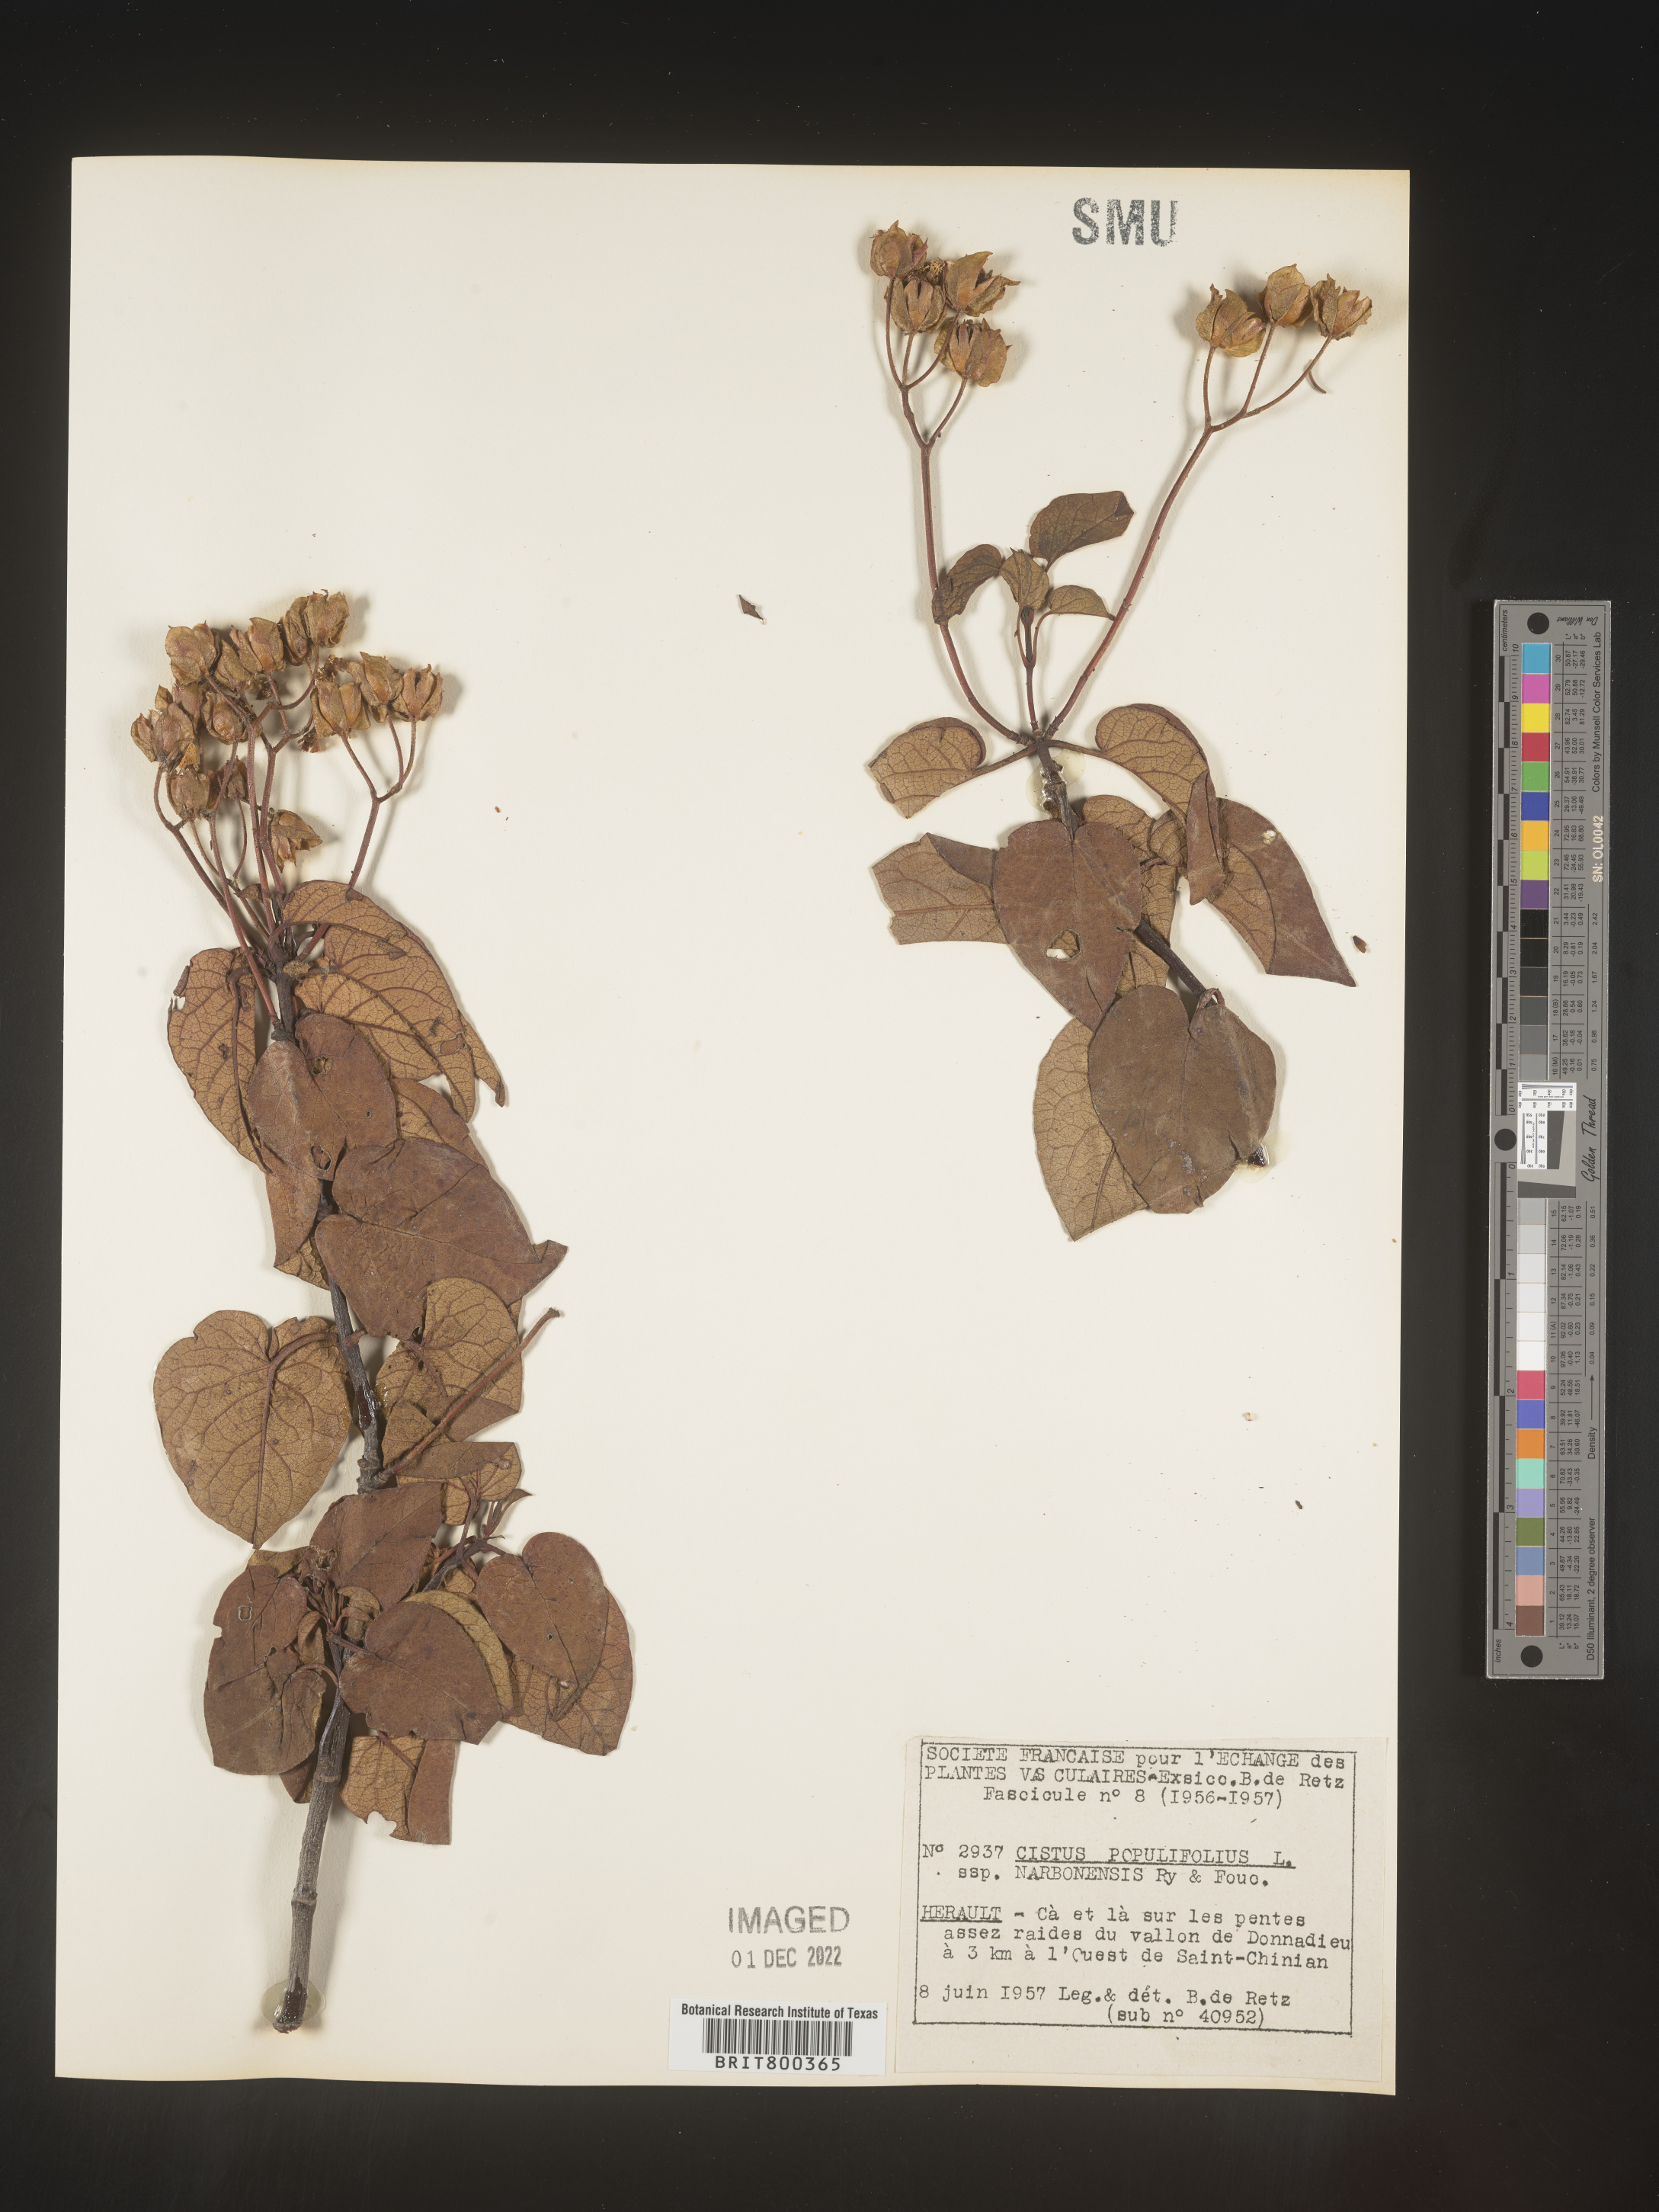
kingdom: Plantae
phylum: Tracheophyta
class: Magnoliopsida
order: Malvales
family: Cistaceae
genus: Cistus
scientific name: Cistus
